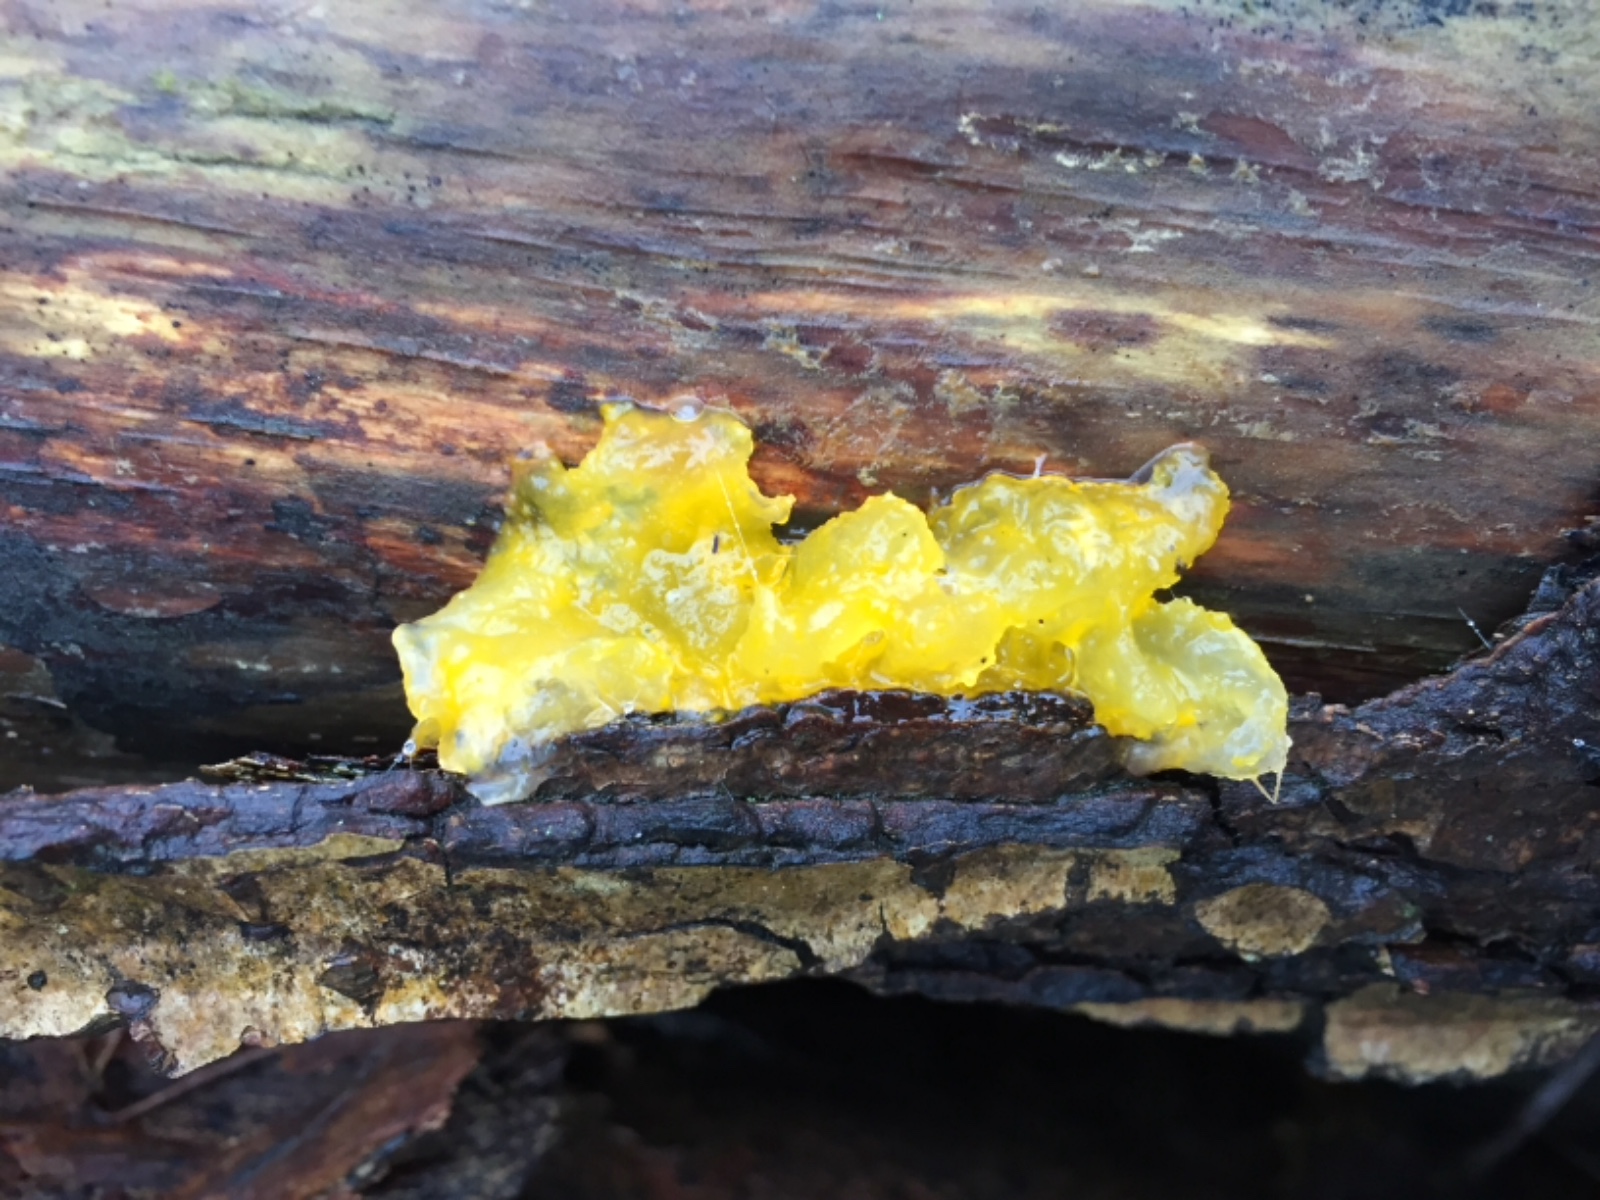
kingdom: Fungi
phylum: Basidiomycota
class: Tremellomycetes
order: Tremellales
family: Tremellaceae
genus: Tremella
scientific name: Tremella mesenterica
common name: gul bævresvamp
